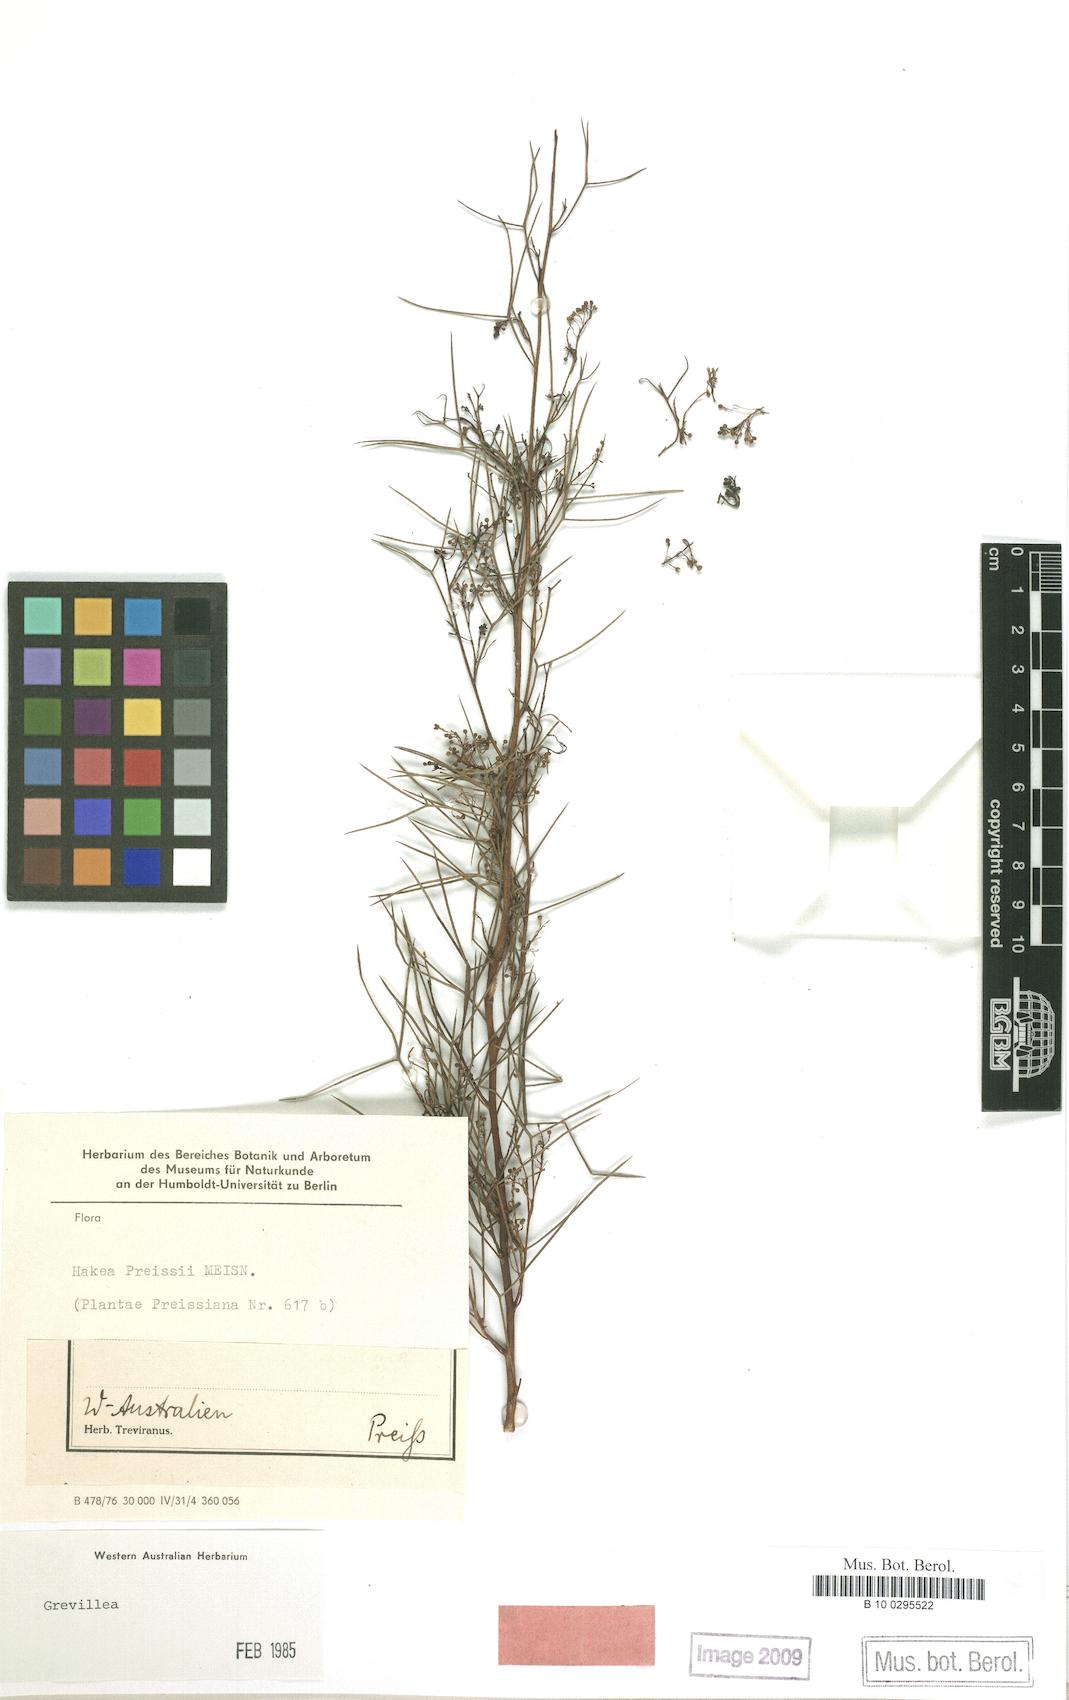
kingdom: Plantae
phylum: Tracheophyta
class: Magnoliopsida
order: Proteales
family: Proteaceae
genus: Hakea
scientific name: Hakea preissii
